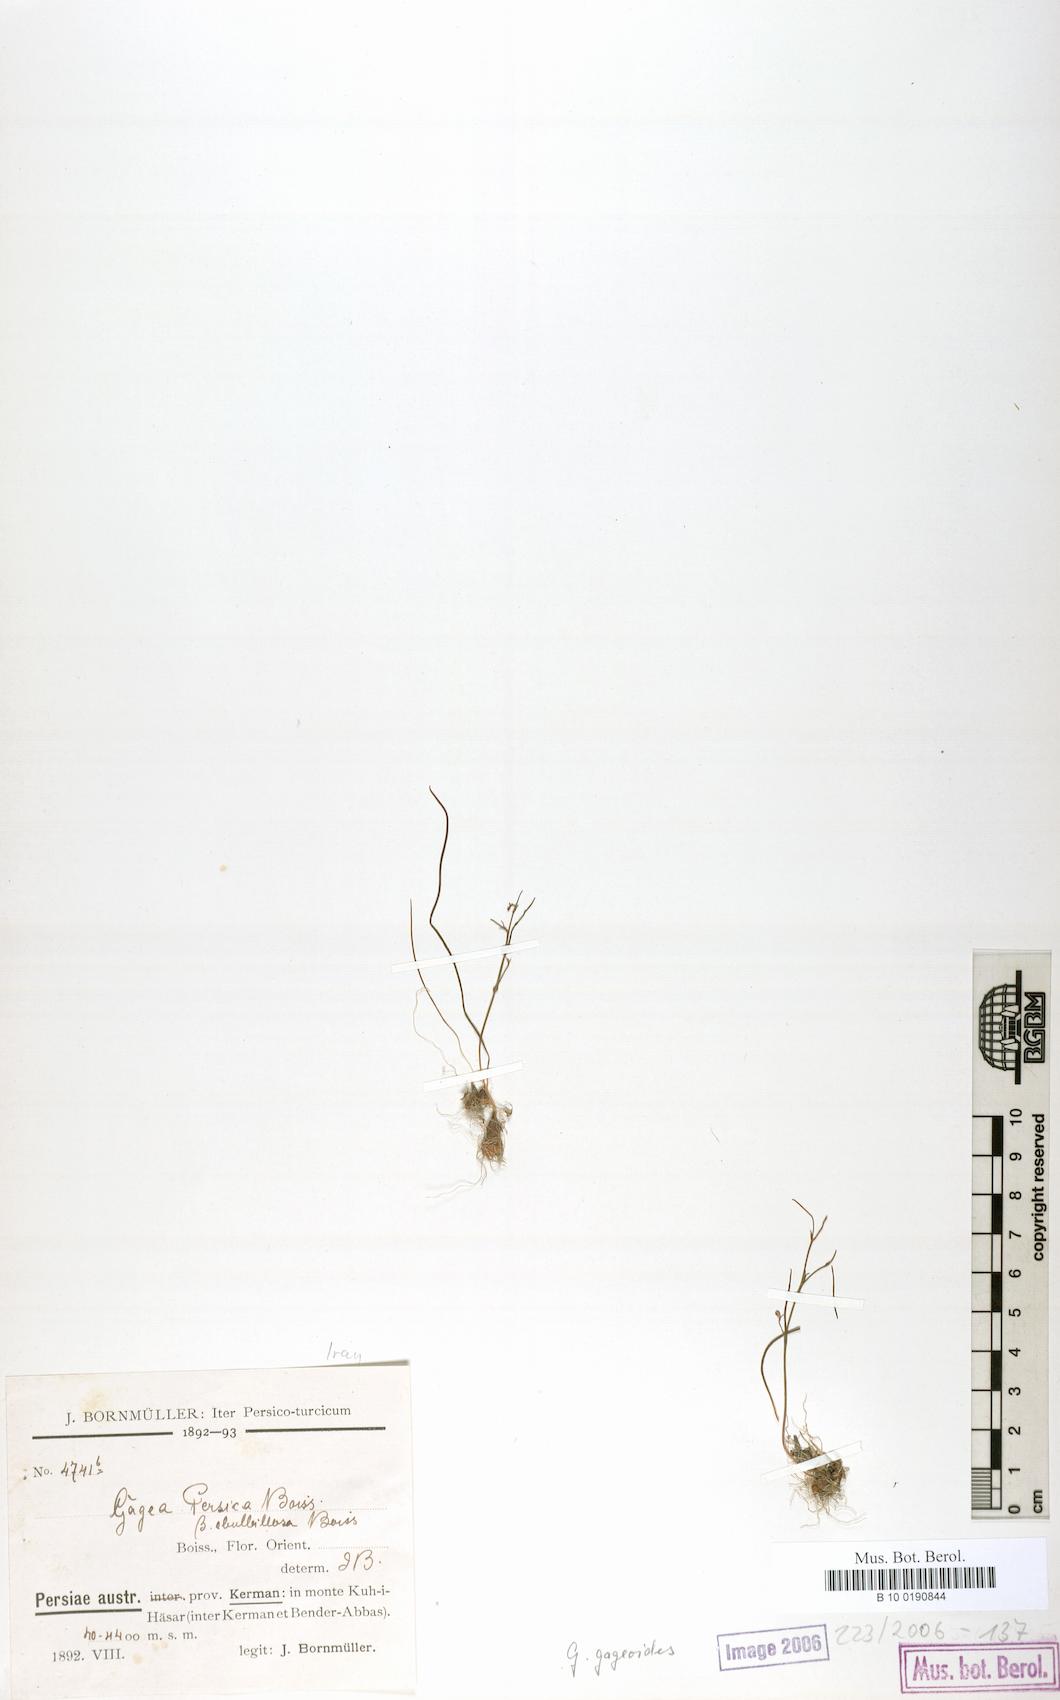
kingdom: Plantae
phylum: Tracheophyta
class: Liliopsida
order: Liliales
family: Liliaceae
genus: Gagea
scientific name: Gagea gageoides
